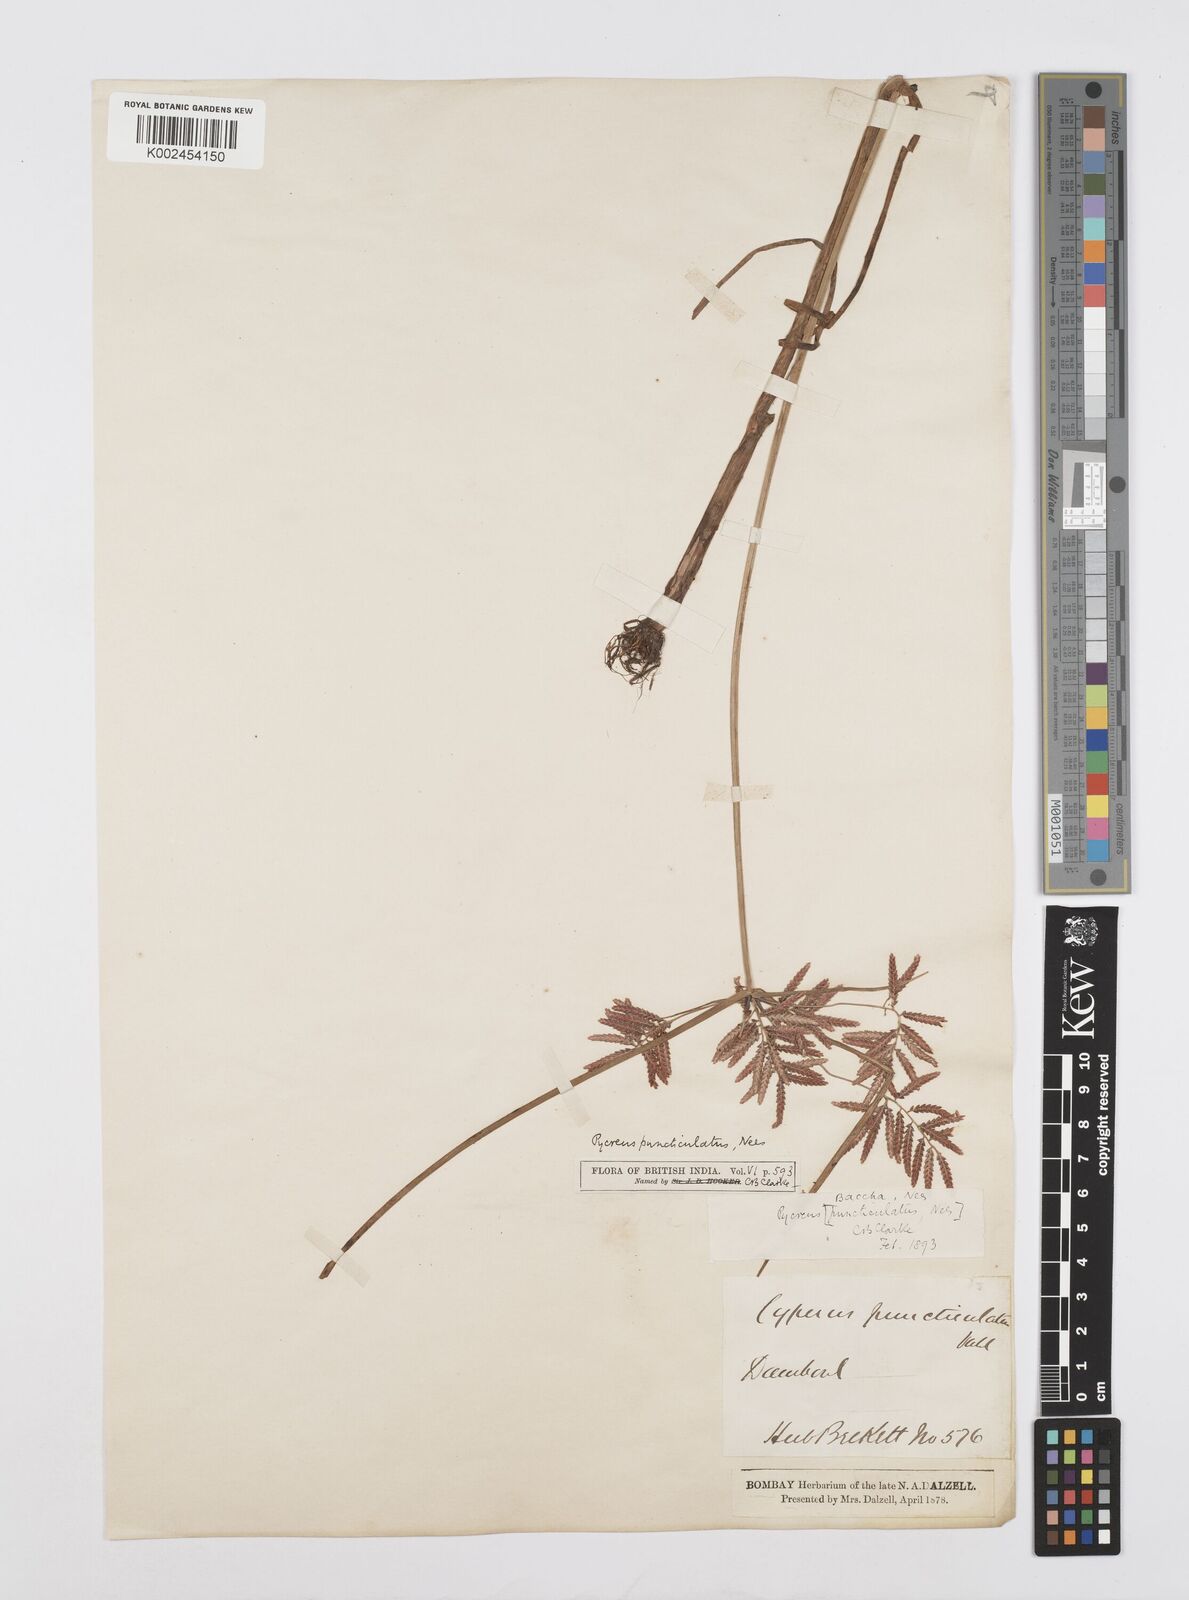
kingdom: Plantae
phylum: Tracheophyta
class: Liliopsida
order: Poales
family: Cyperaceae
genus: Cyperus
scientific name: Cyperus serotinus
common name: Tidalmarsh flatsedge
